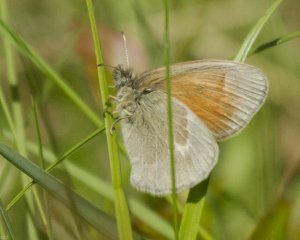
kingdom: Animalia
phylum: Arthropoda
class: Insecta
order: Lepidoptera
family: Nymphalidae
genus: Coenonympha
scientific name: Coenonympha tullia
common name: Large Heath
